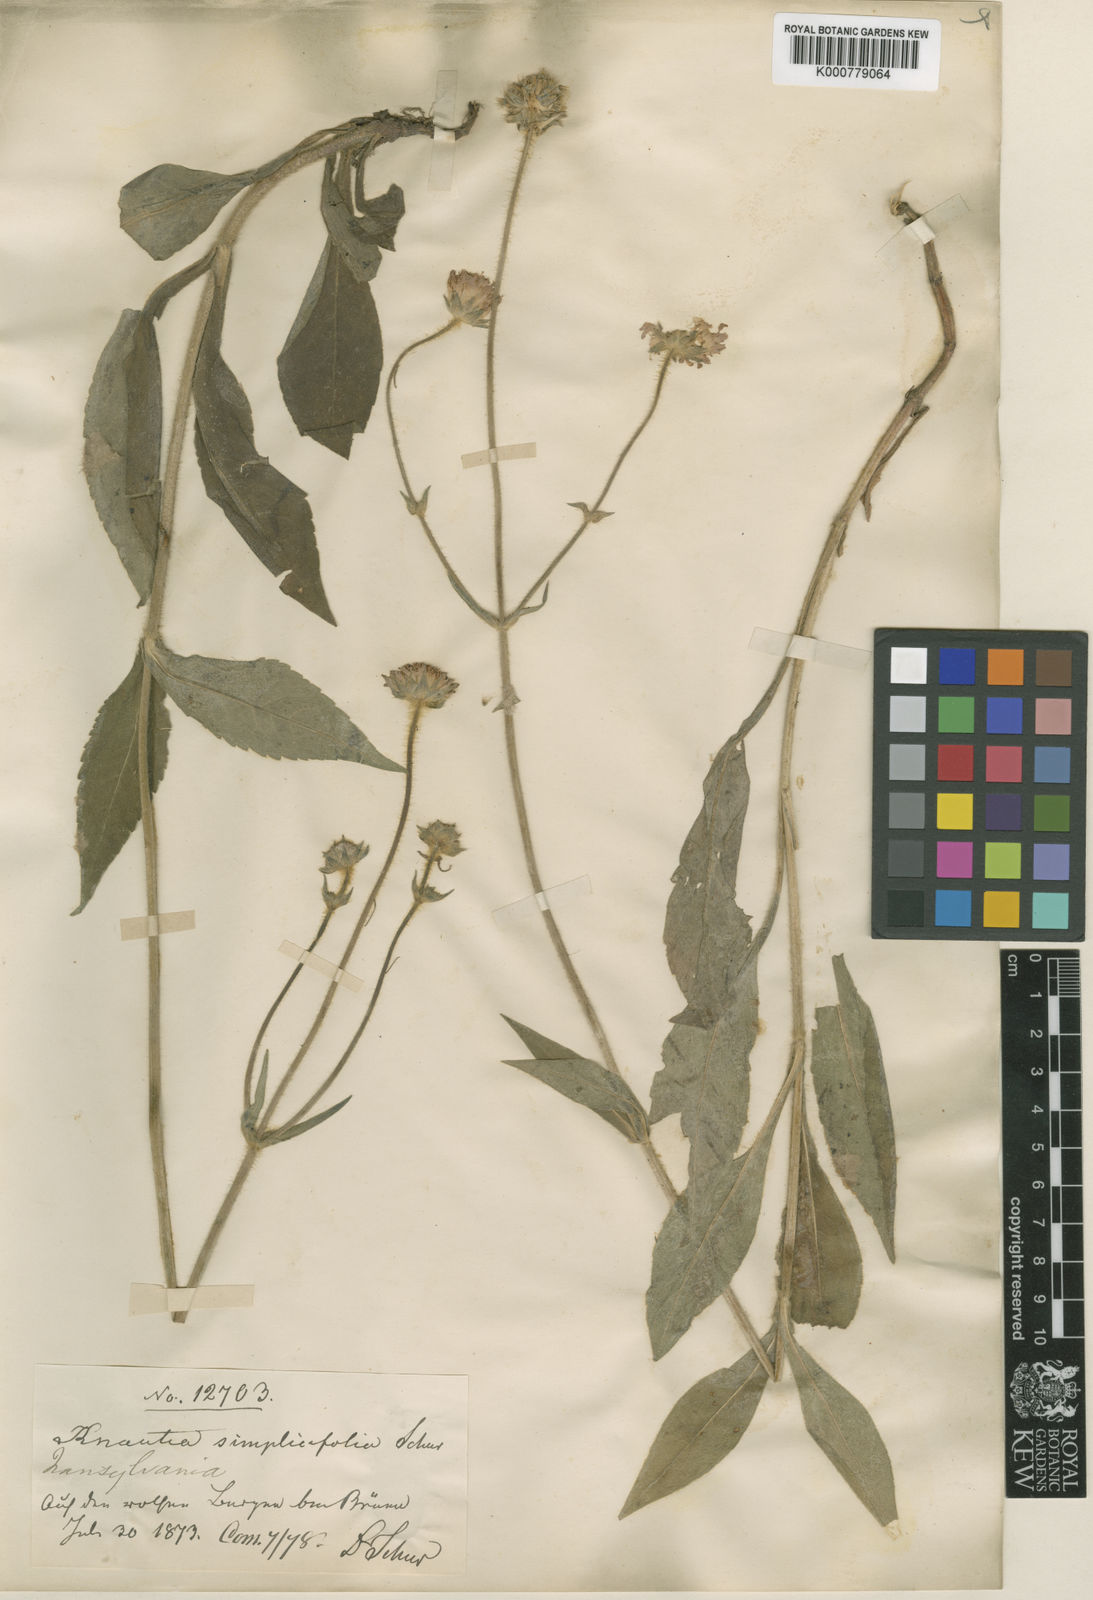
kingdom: Plantae
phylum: Tracheophyta
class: Magnoliopsida
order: Dipsacales
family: Caprifoliaceae
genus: Knautia
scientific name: Knautia
